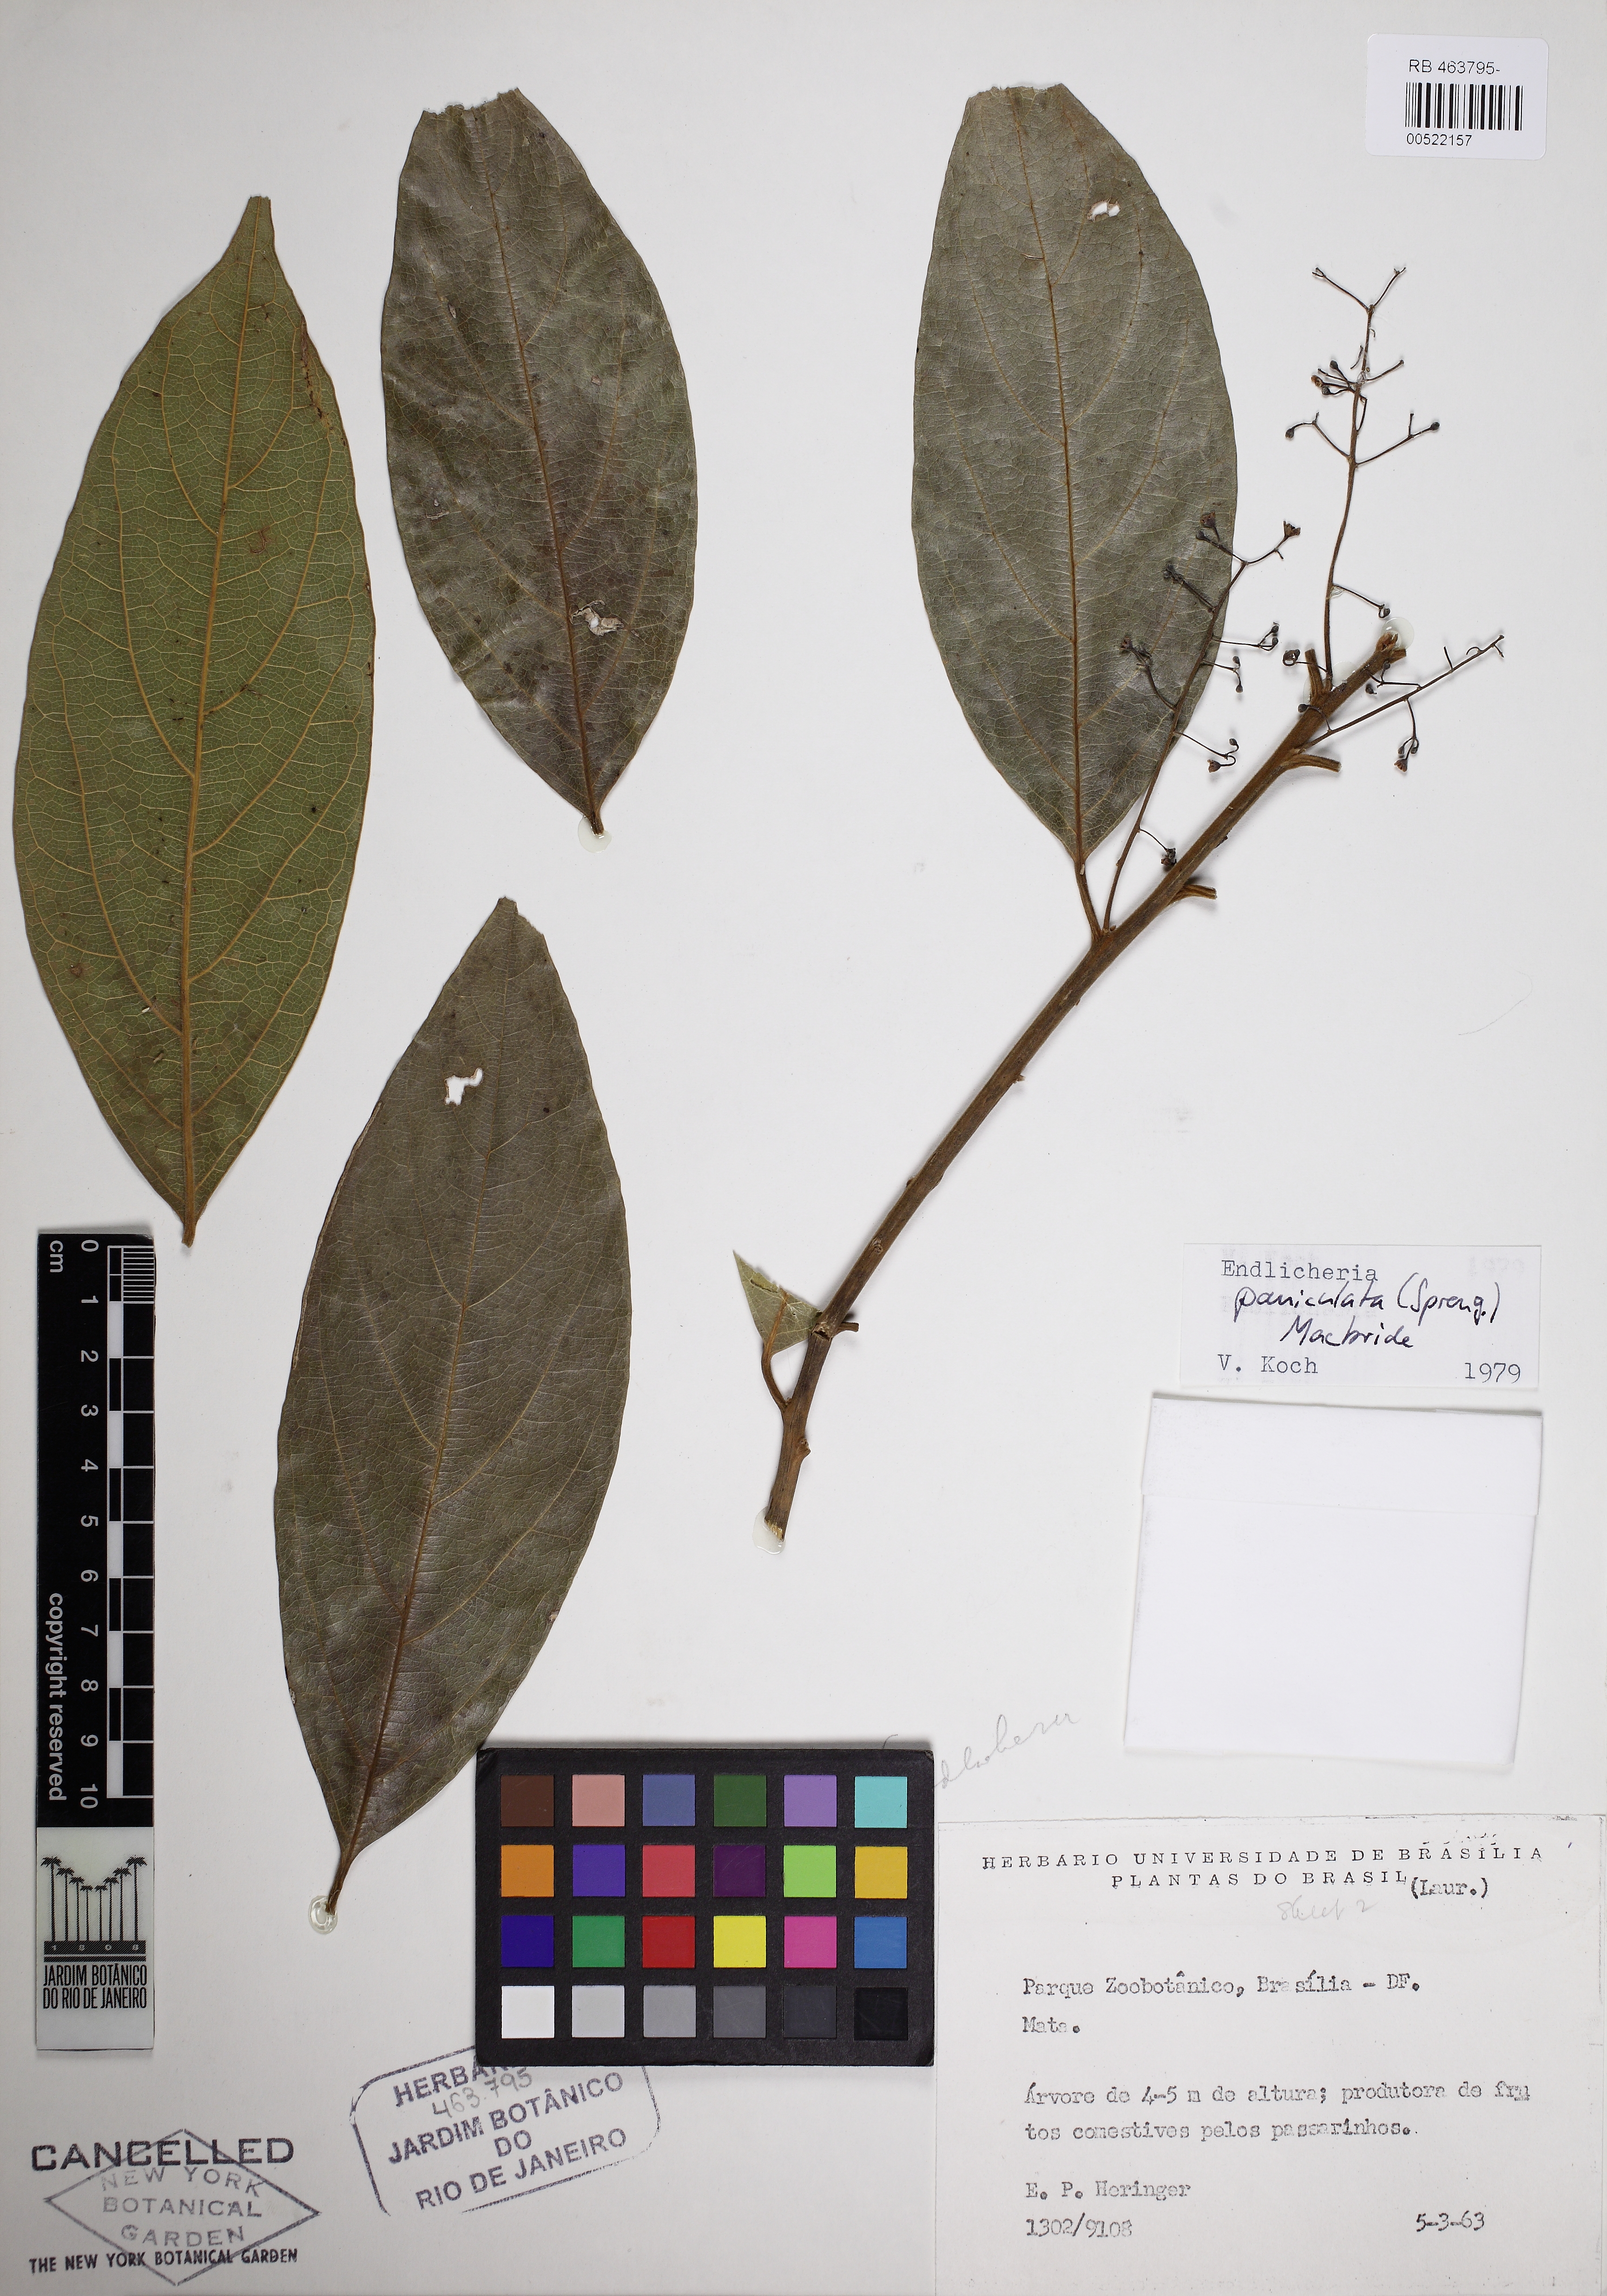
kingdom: Plantae
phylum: Tracheophyta
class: Magnoliopsida
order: Laurales
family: Lauraceae
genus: Endlicheria
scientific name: Endlicheria paniculata
